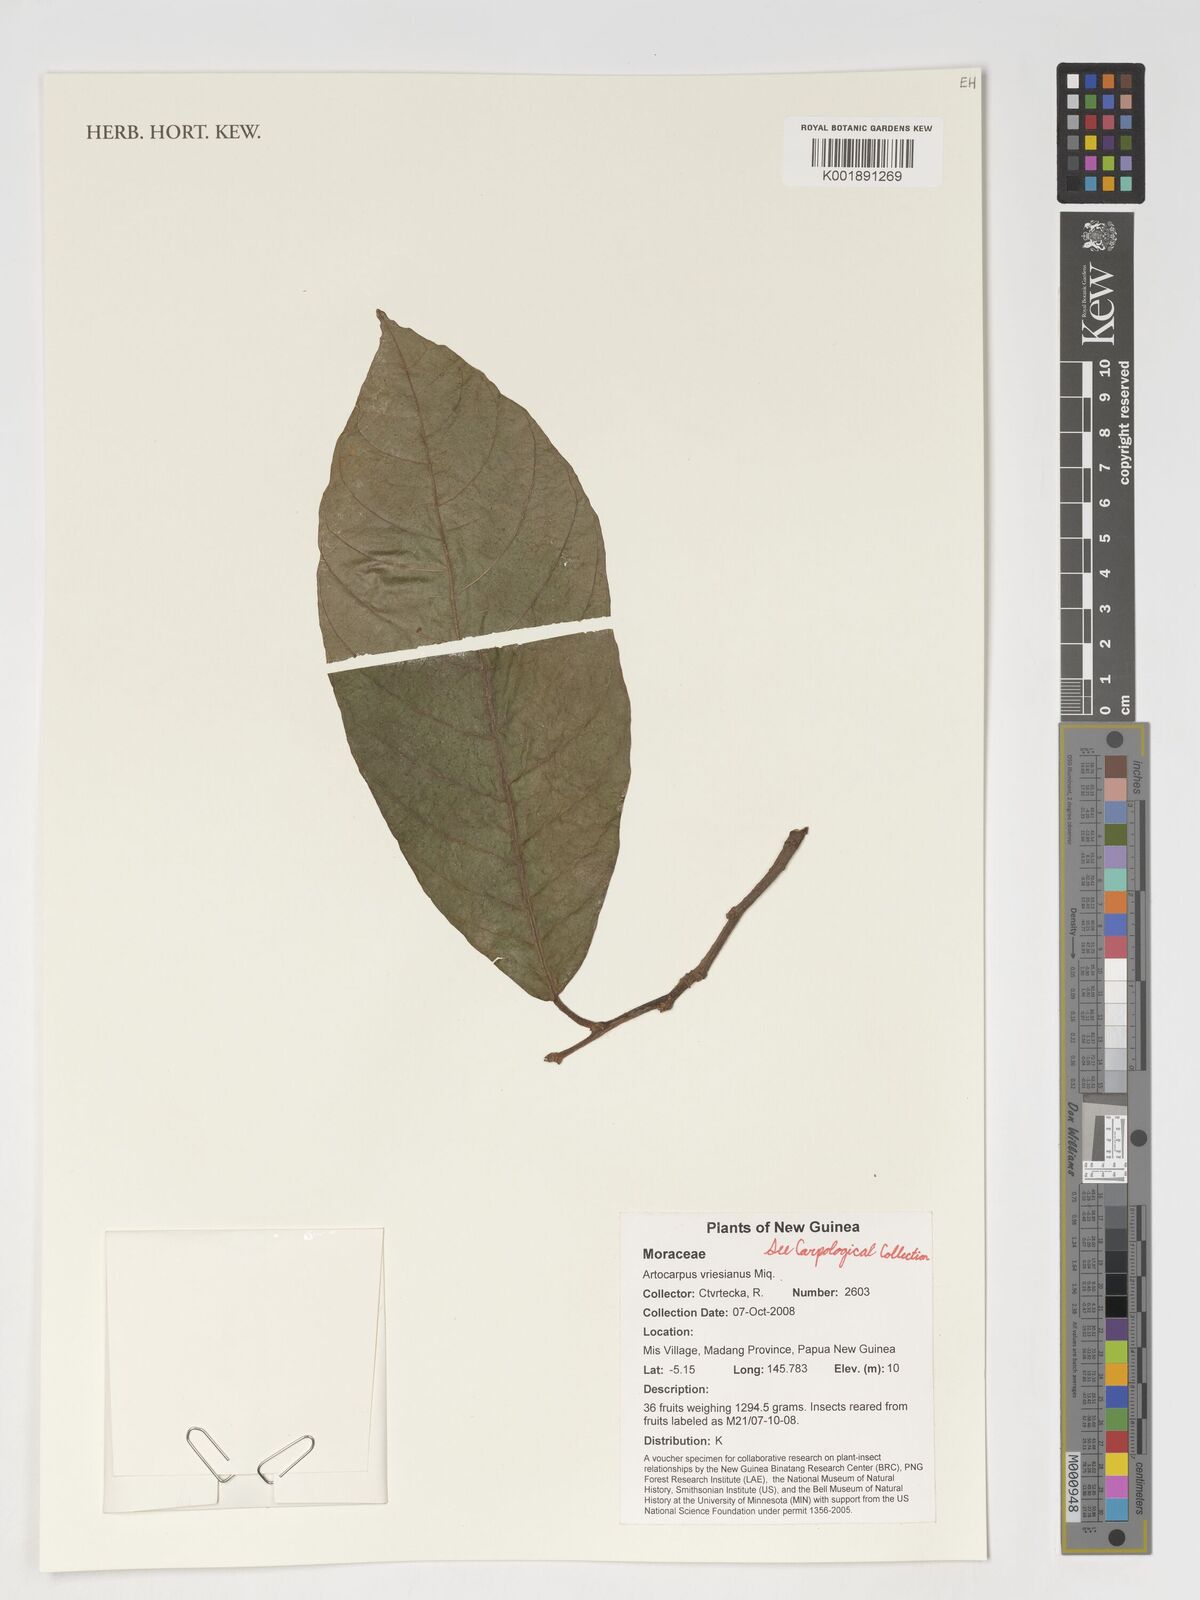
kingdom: Plantae
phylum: Tracheophyta
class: Magnoliopsida
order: Rosales
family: Moraceae
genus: Artocarpus
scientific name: Artocarpus vrieseanus
